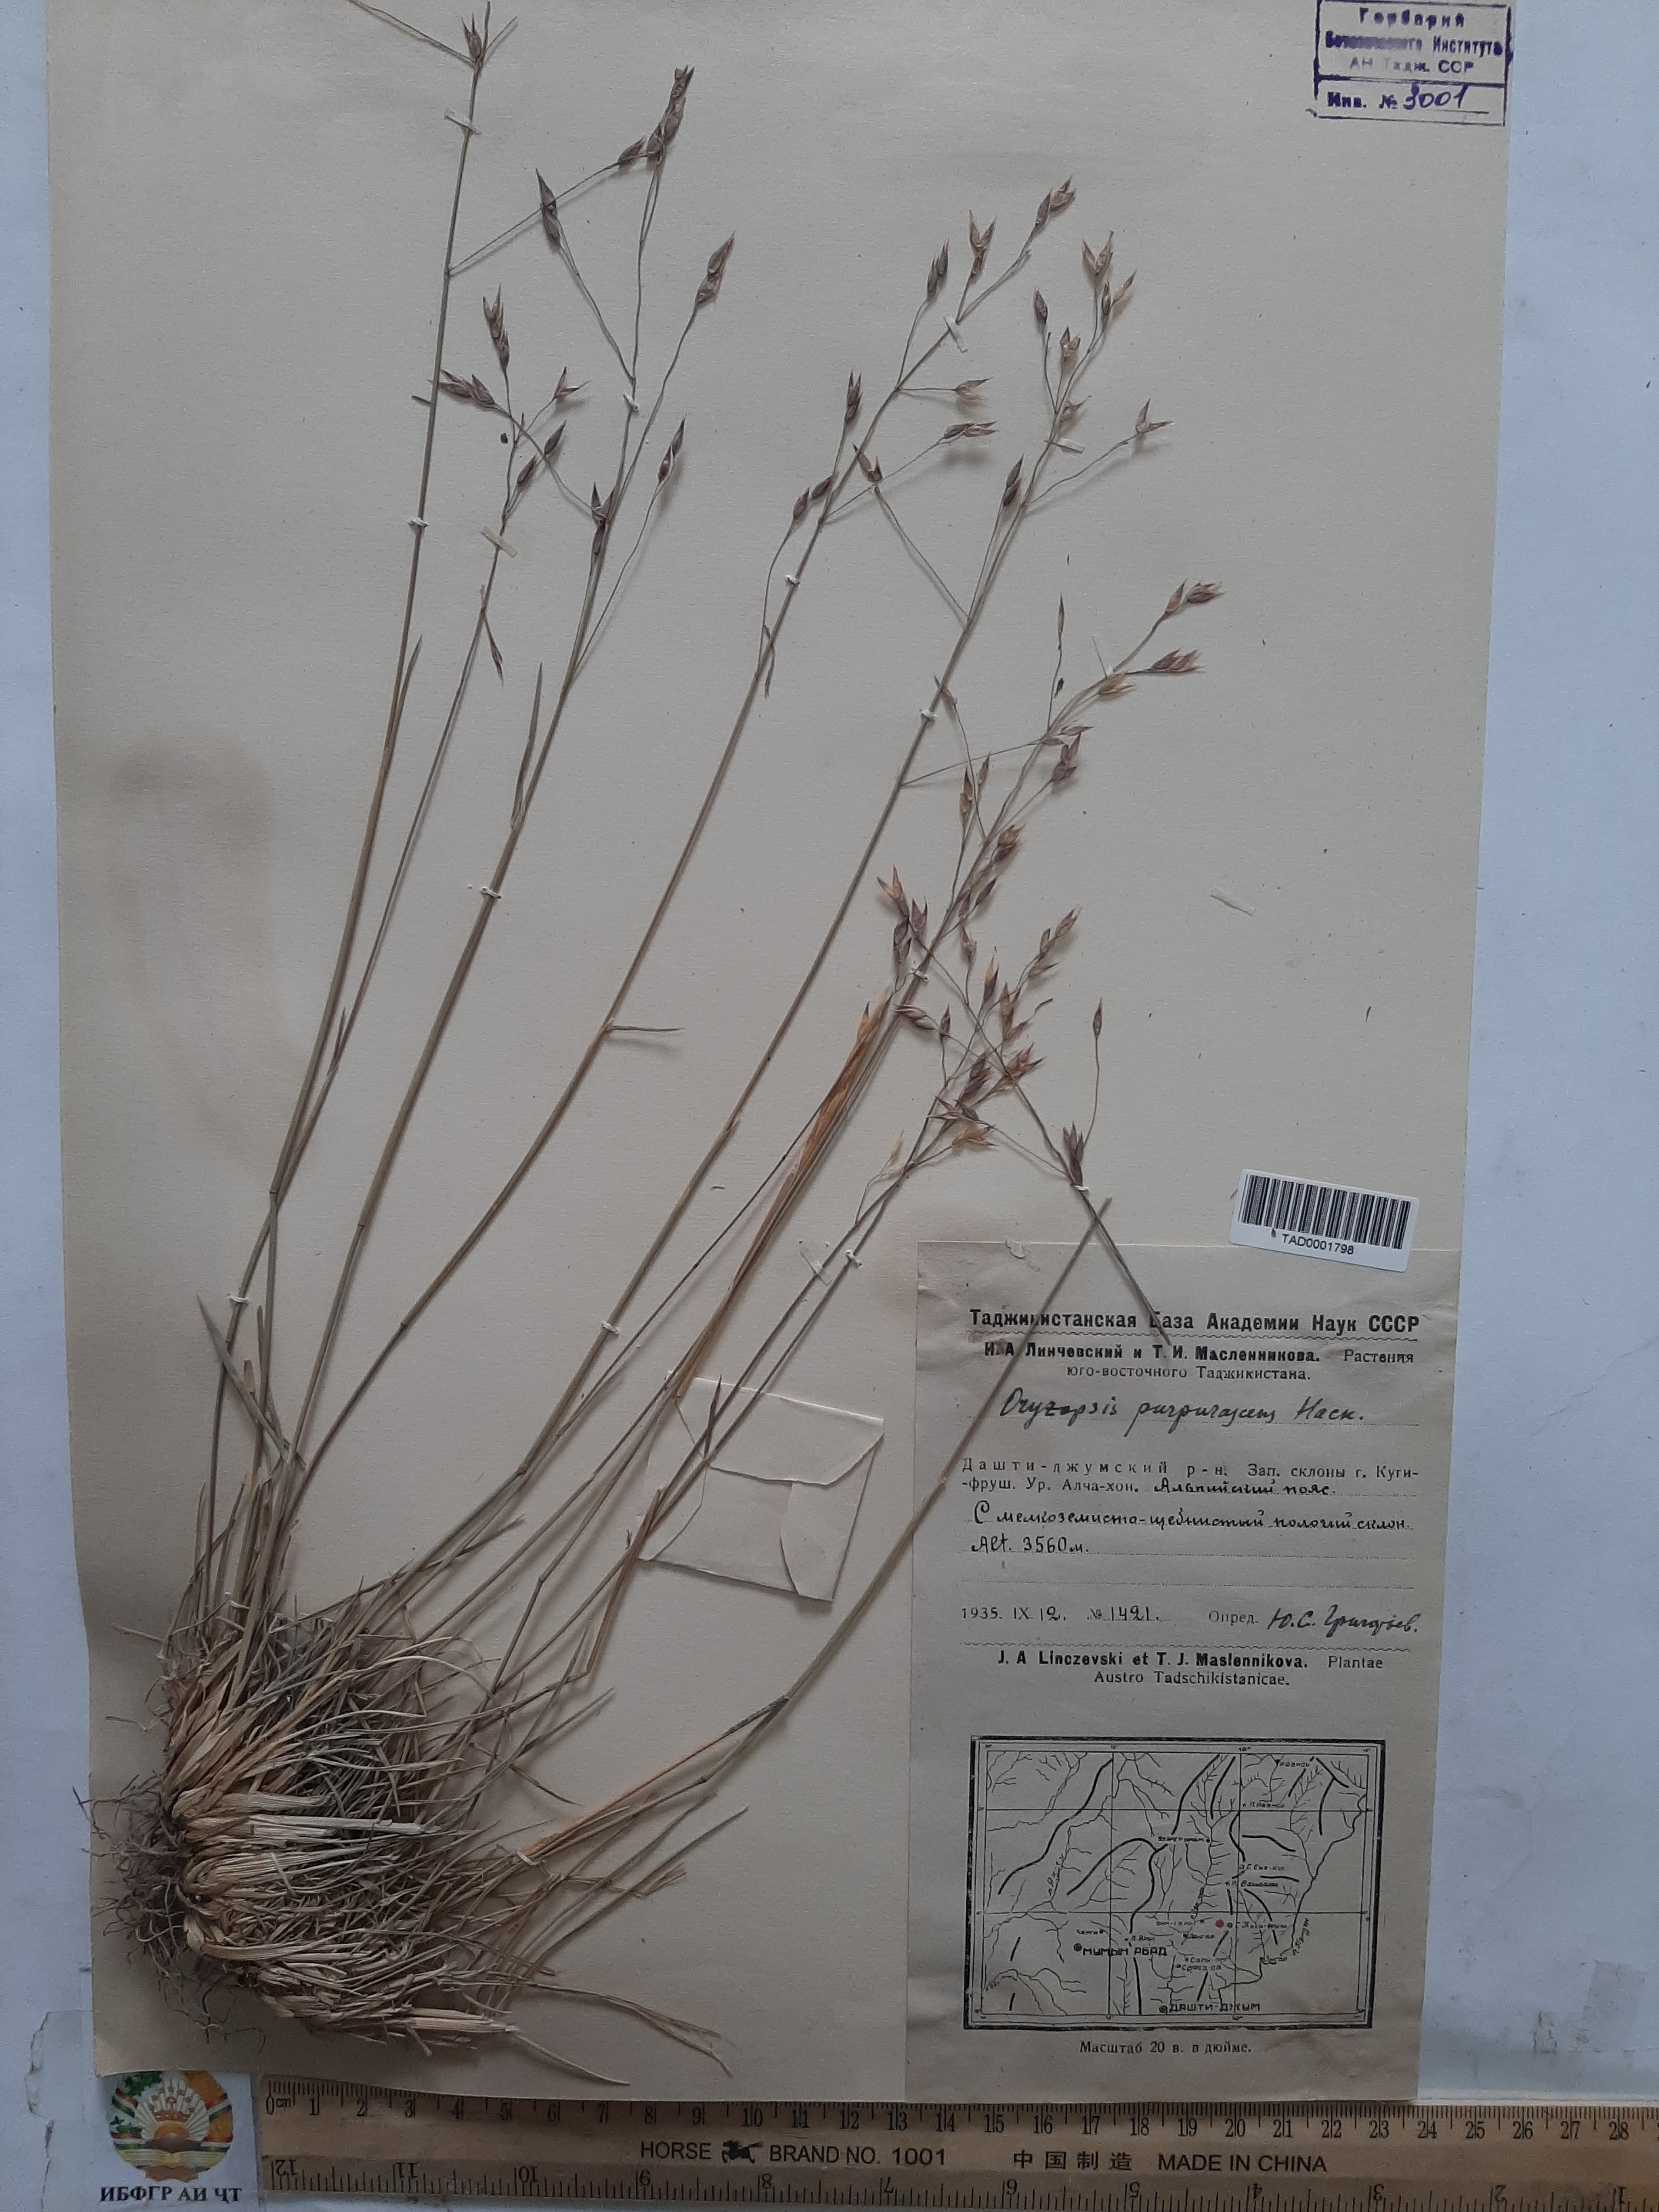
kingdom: Plantae
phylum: Tracheophyta
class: Liliopsida
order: Poales
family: Poaceae
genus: Piptatherum
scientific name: Piptatherum purpurascens
